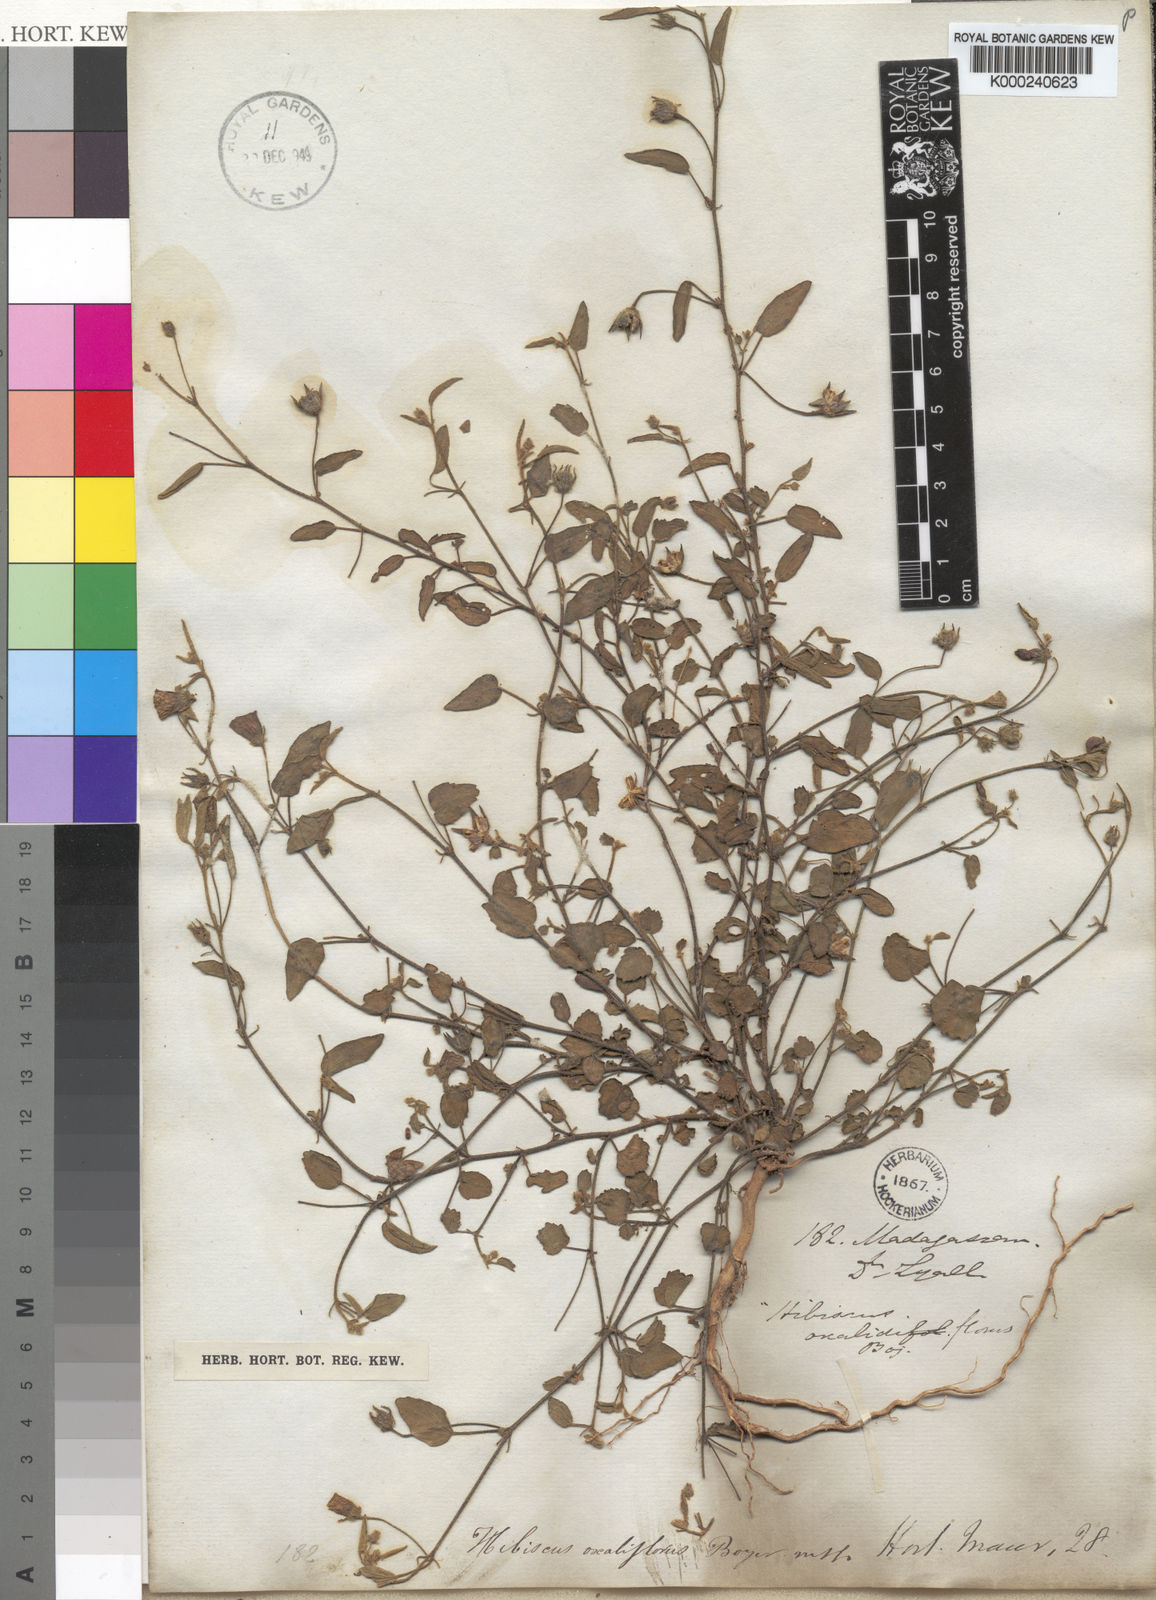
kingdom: Plantae
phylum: Tracheophyta
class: Magnoliopsida
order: Malvales
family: Malvaceae
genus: Hibiscus
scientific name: Hibiscus
